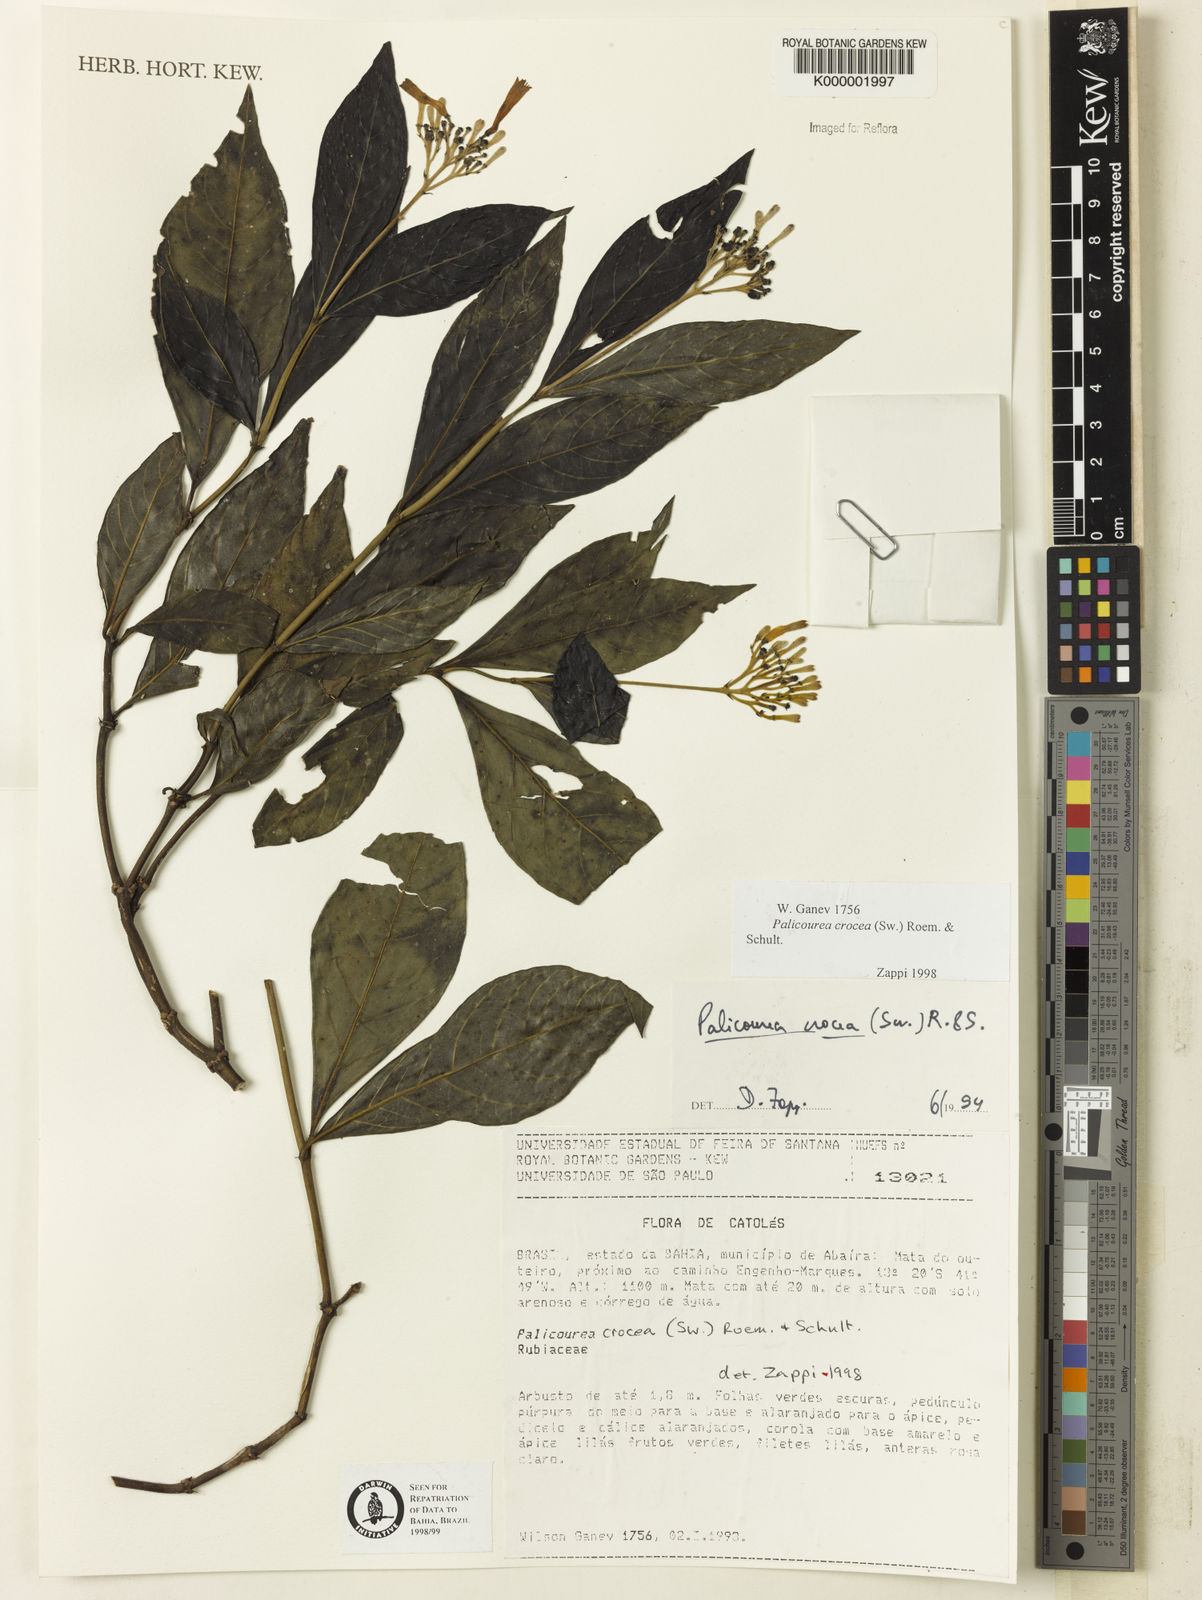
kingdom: Plantae
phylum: Tracheophyta
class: Magnoliopsida
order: Gentianales
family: Rubiaceae
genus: Palicourea
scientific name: Palicourea marcgravii
